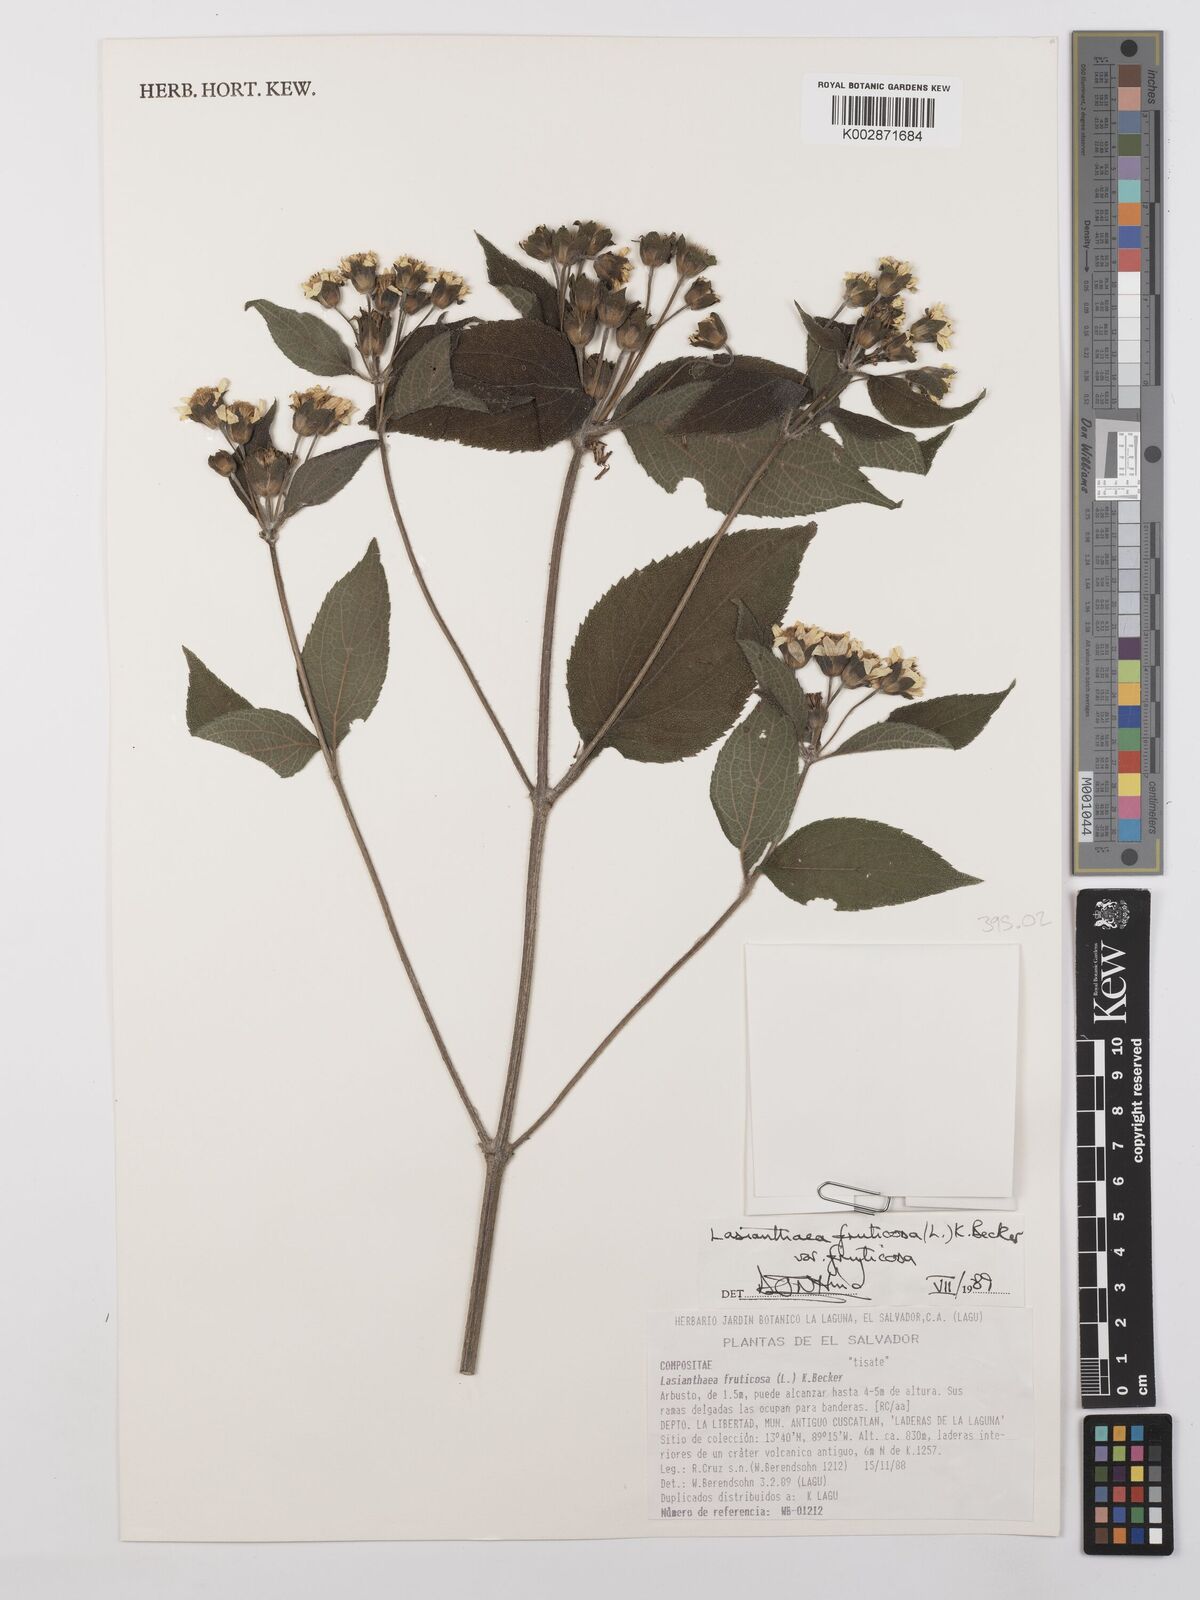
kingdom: Plantae
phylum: Tracheophyta
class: Magnoliopsida
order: Asterales
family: Asteraceae
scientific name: Asteraceae
